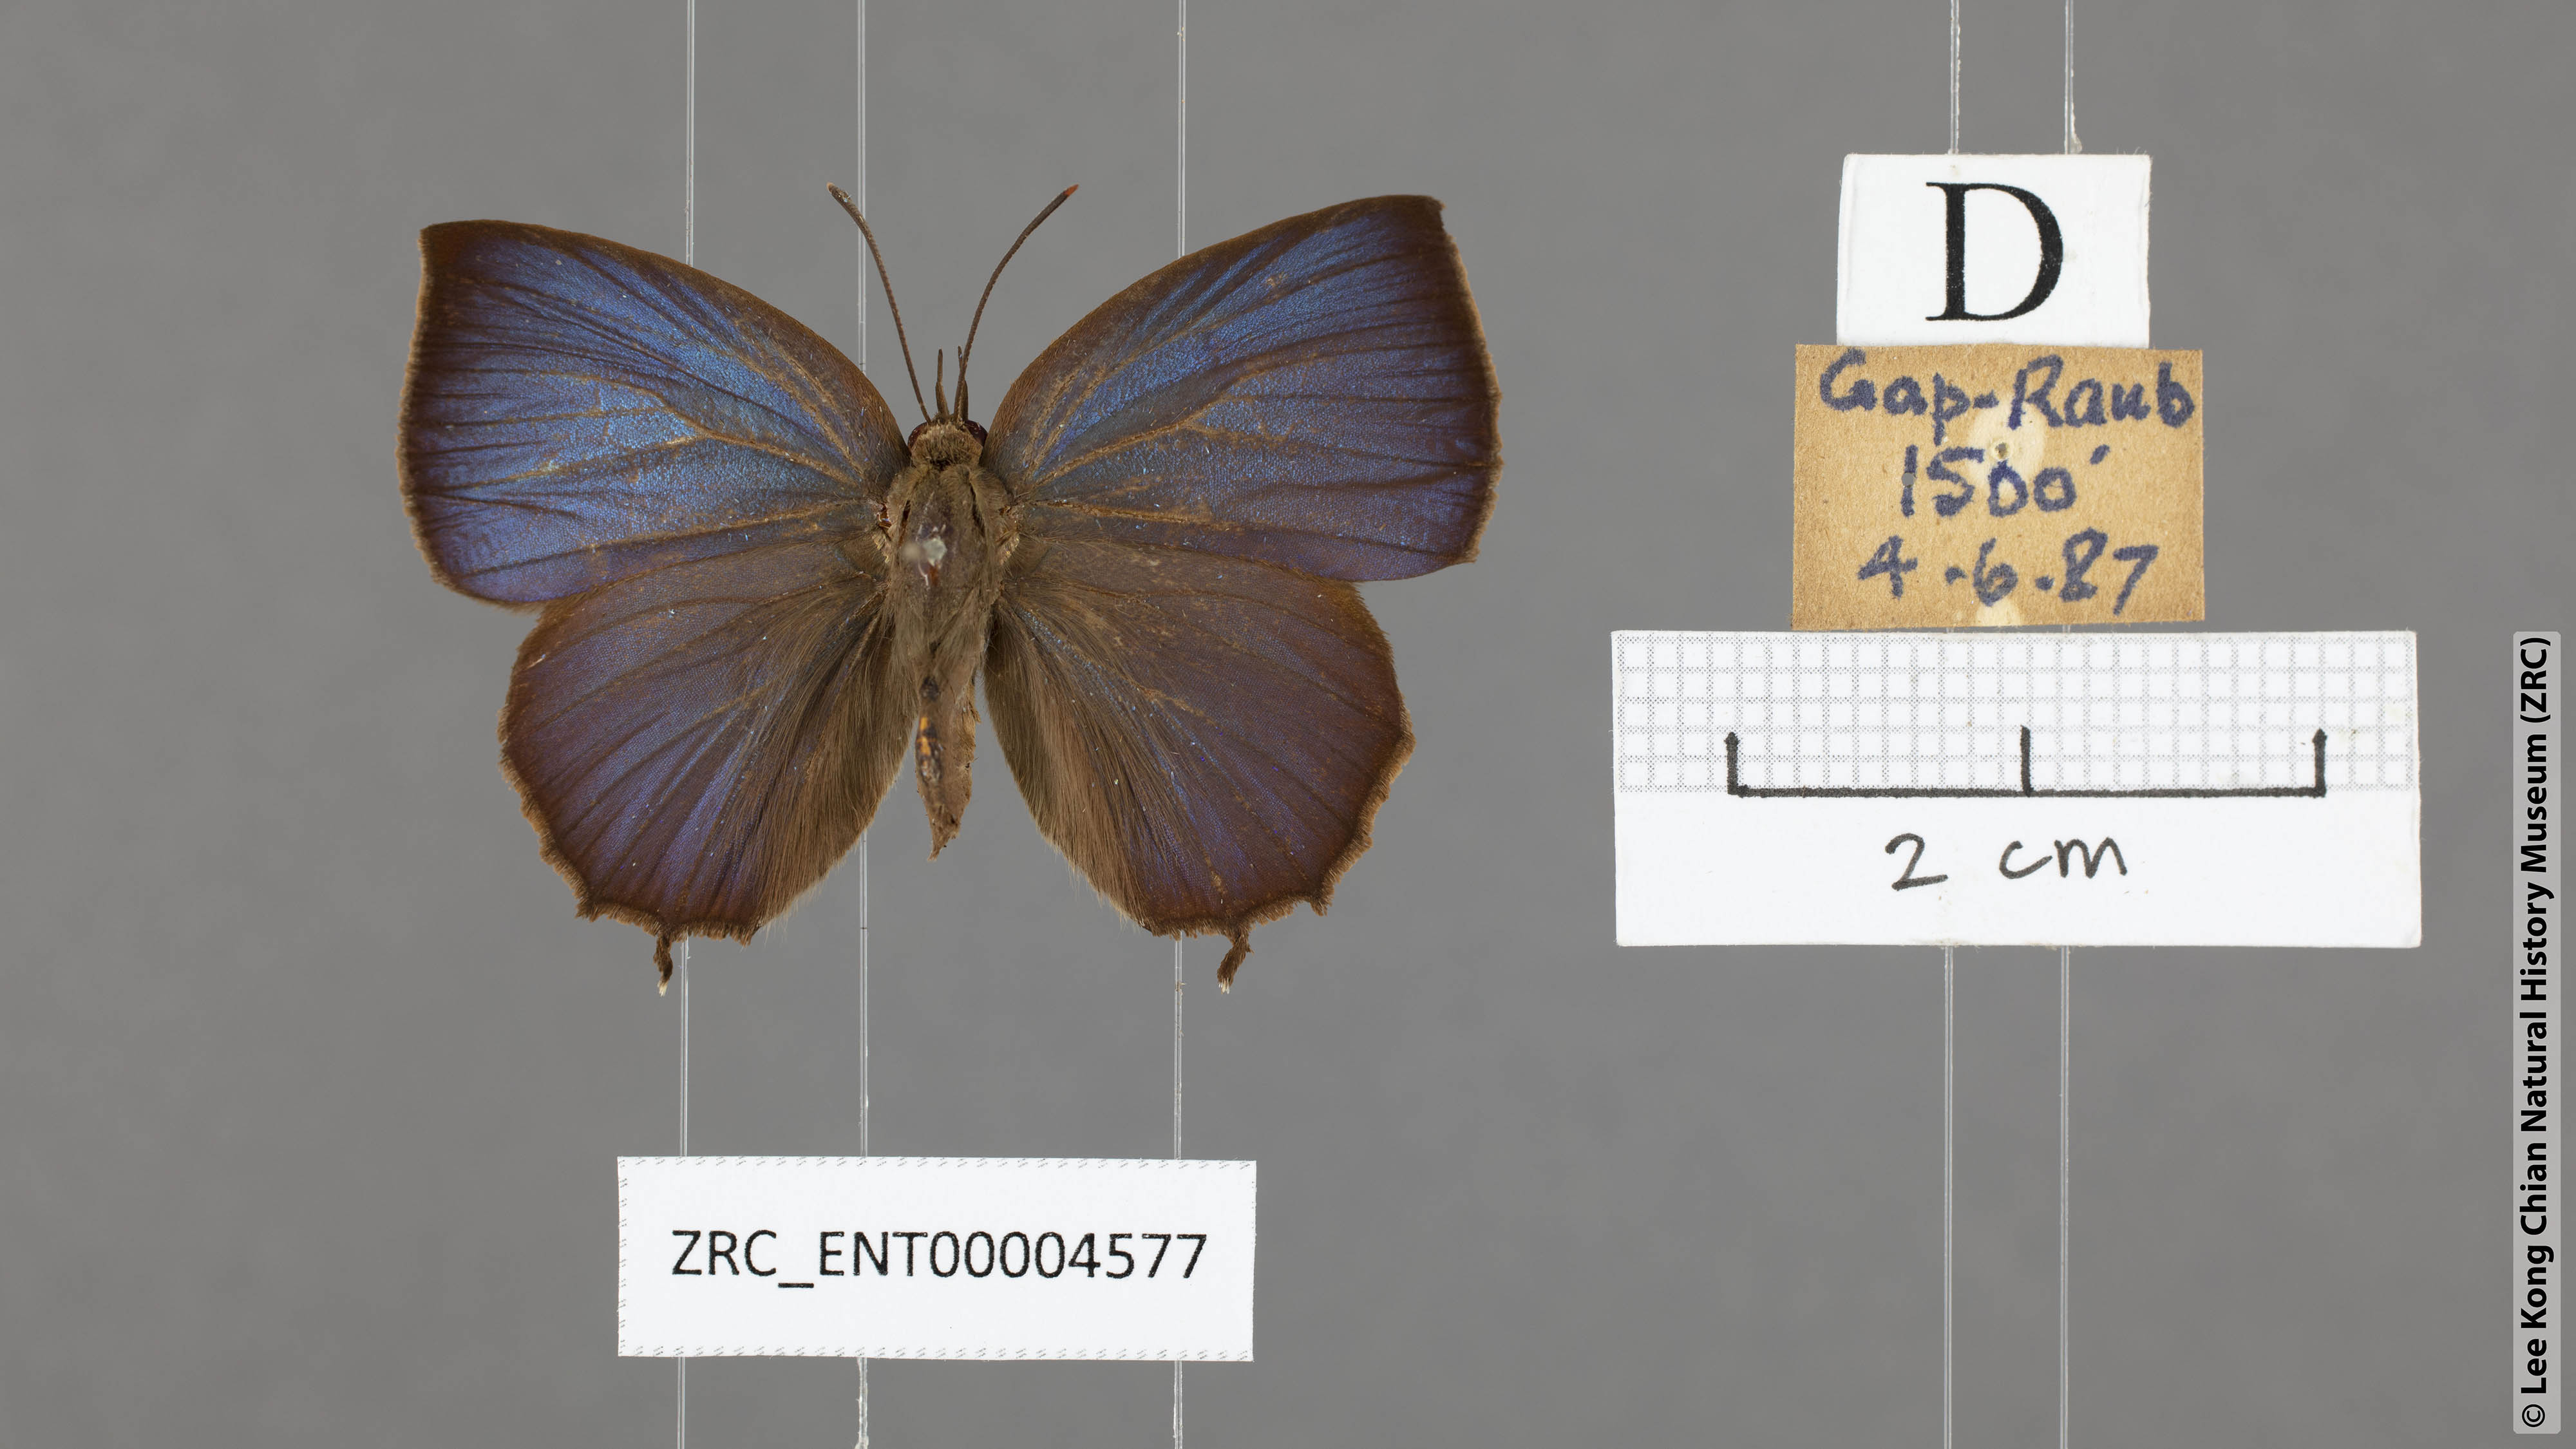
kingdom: Animalia
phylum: Arthropoda
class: Insecta
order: Lepidoptera
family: Lycaenidae
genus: Surendra
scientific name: Surendra vivarna
